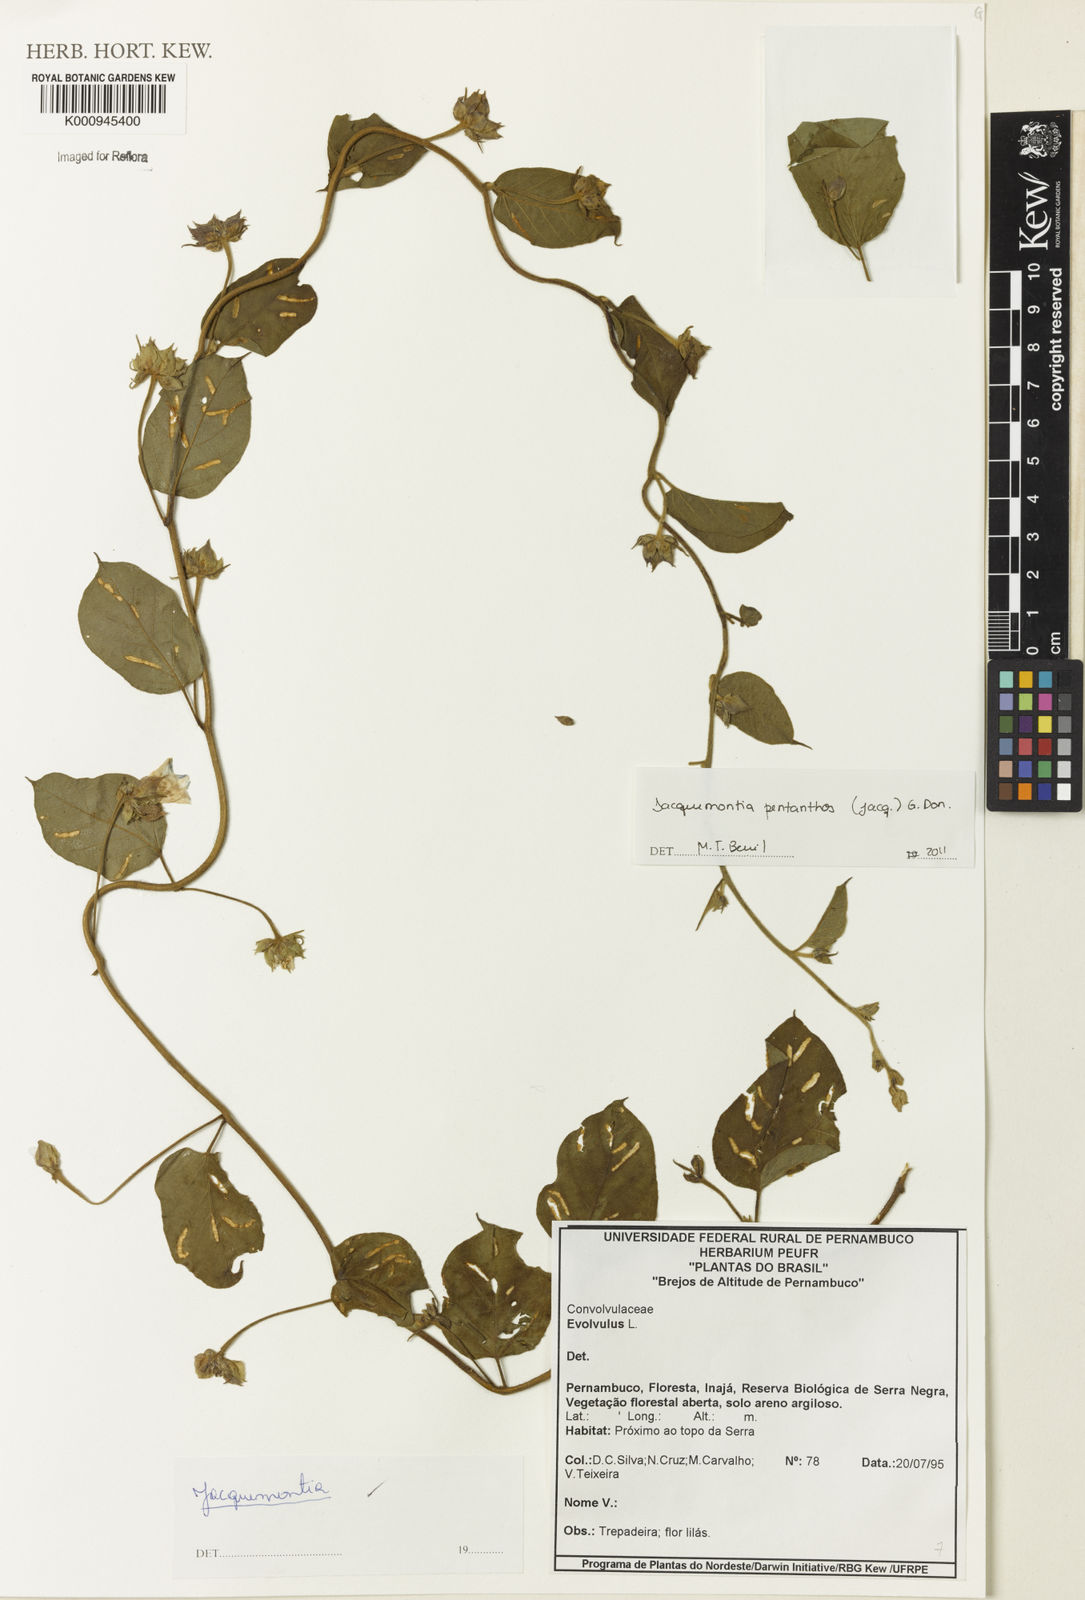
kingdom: Plantae
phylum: Tracheophyta
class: Magnoliopsida
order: Solanales
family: Convolvulaceae
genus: Jacquemontia
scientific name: Jacquemontia pentanthos
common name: Skyblue clustervine
